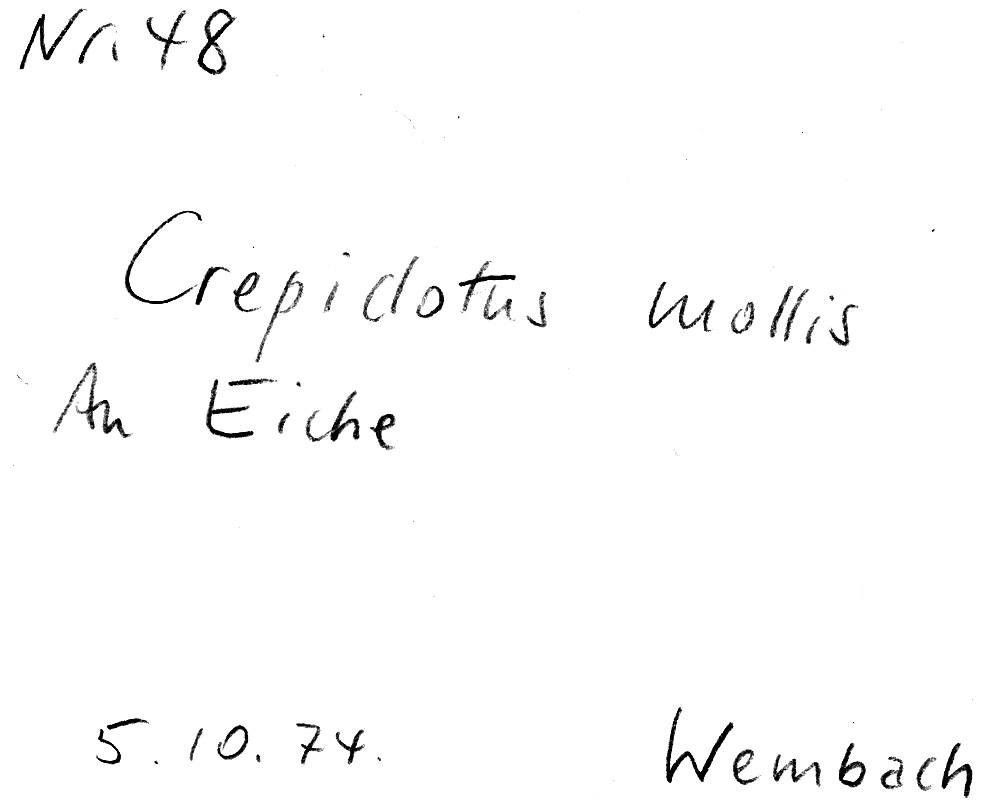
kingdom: Fungi
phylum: Basidiomycota
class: Agaricomycetes
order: Agaricales
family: Crepidotaceae
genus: Crepidotus
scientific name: Crepidotus mollis
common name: Peeling oysterling
